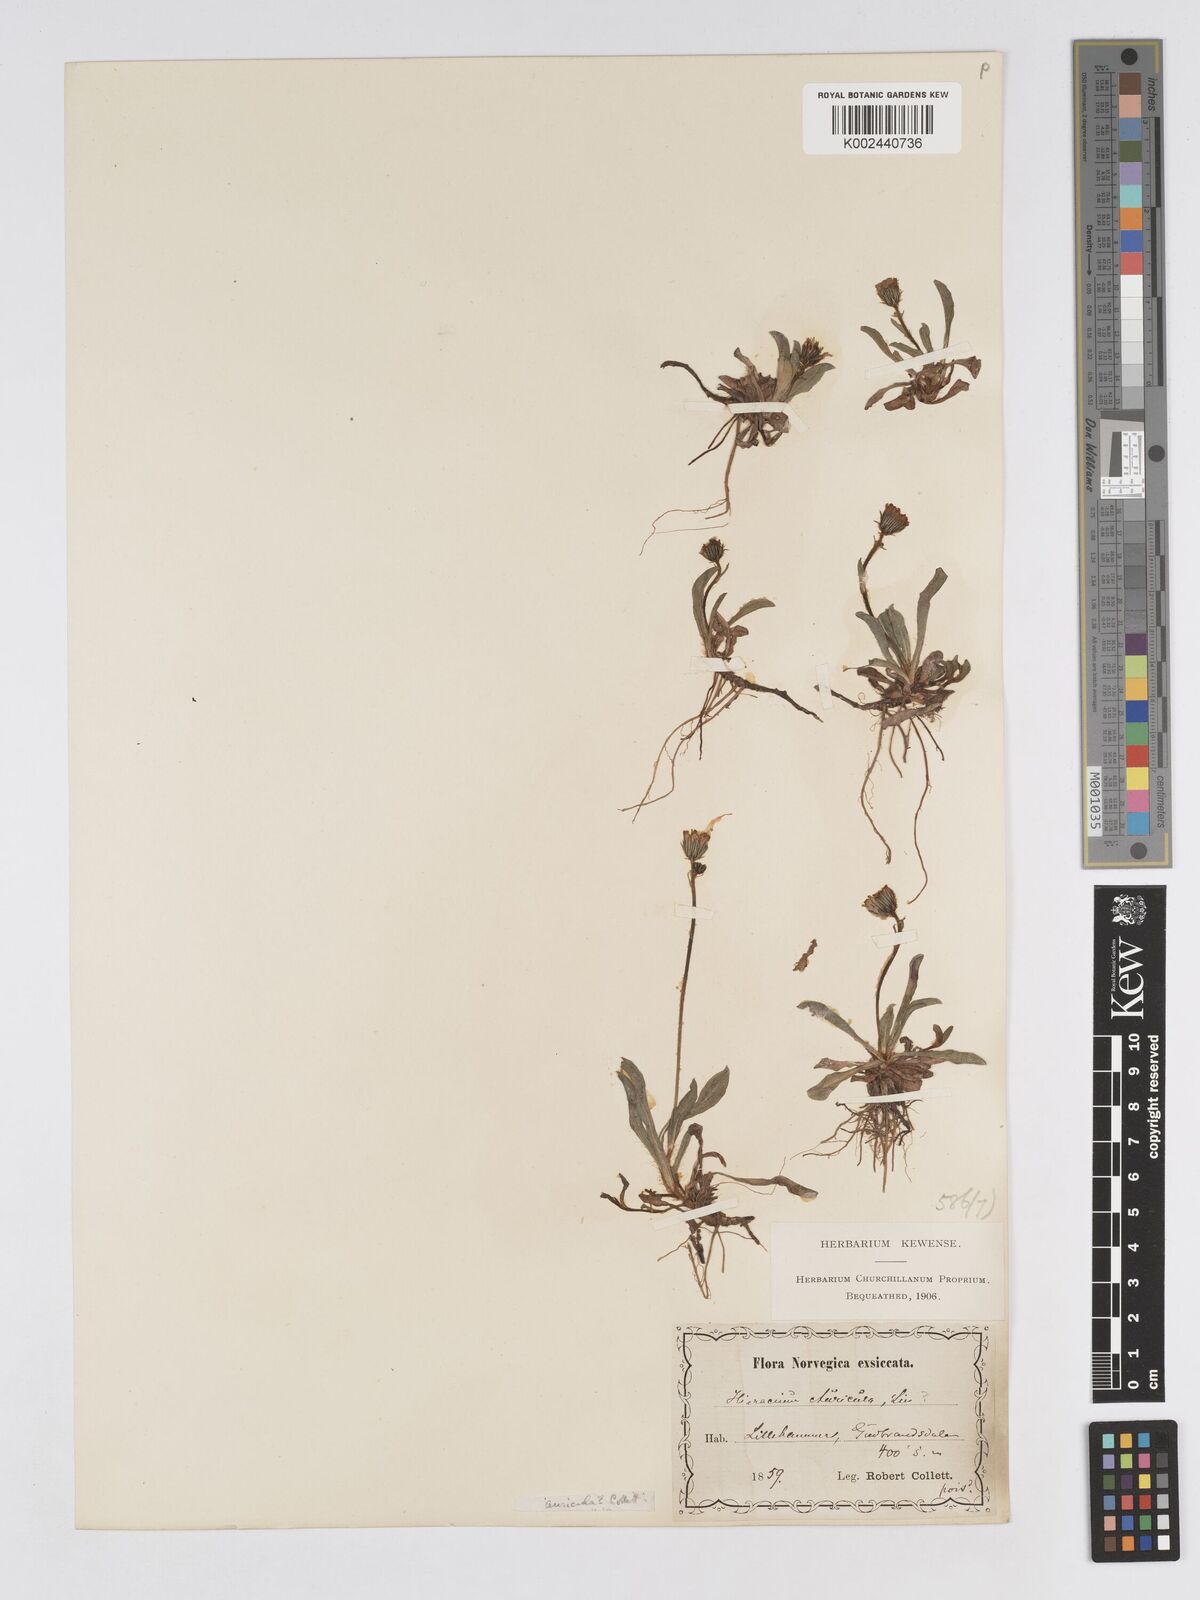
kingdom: Plantae
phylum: Tracheophyta
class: Magnoliopsida
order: Asterales
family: Asteraceae
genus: Pilosella
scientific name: Pilosella floribunda
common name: Glaucous hawkweed
